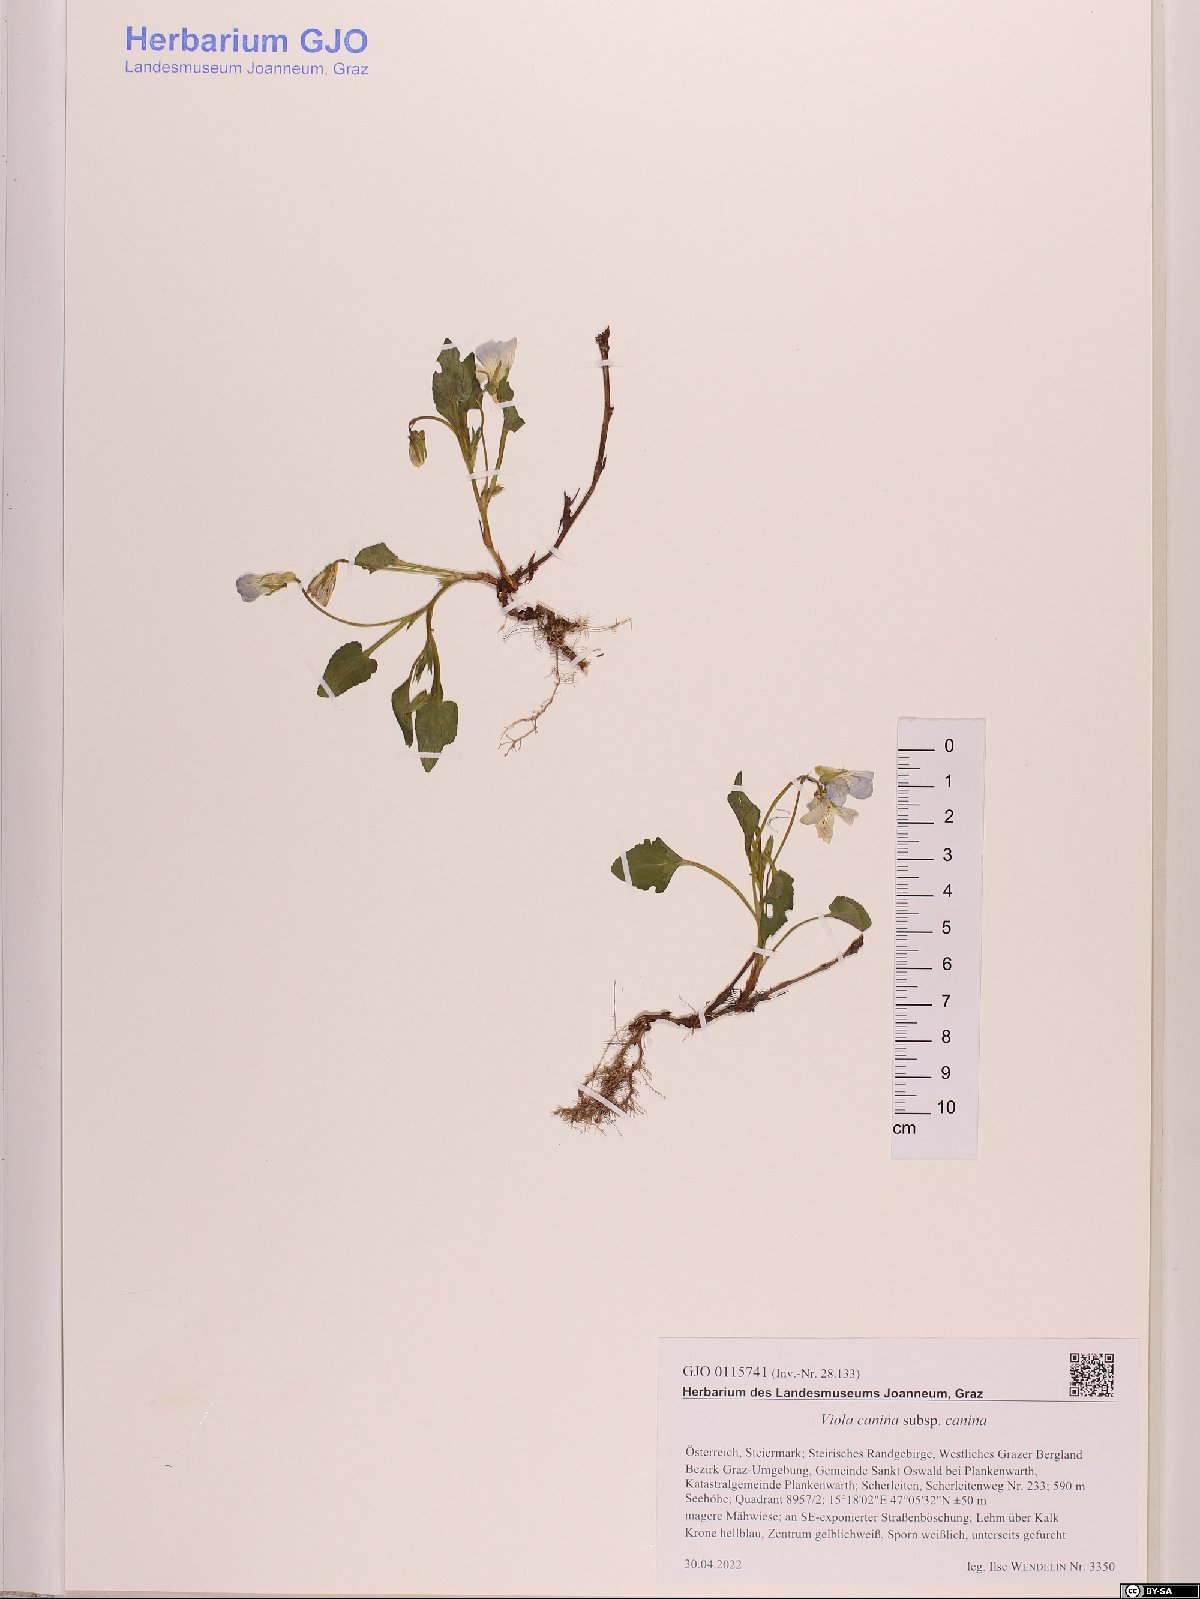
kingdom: Plantae
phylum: Tracheophyta
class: Magnoliopsida
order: Malpighiales
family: Violaceae
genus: Viola
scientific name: Viola canina
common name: Heath dog-violet
